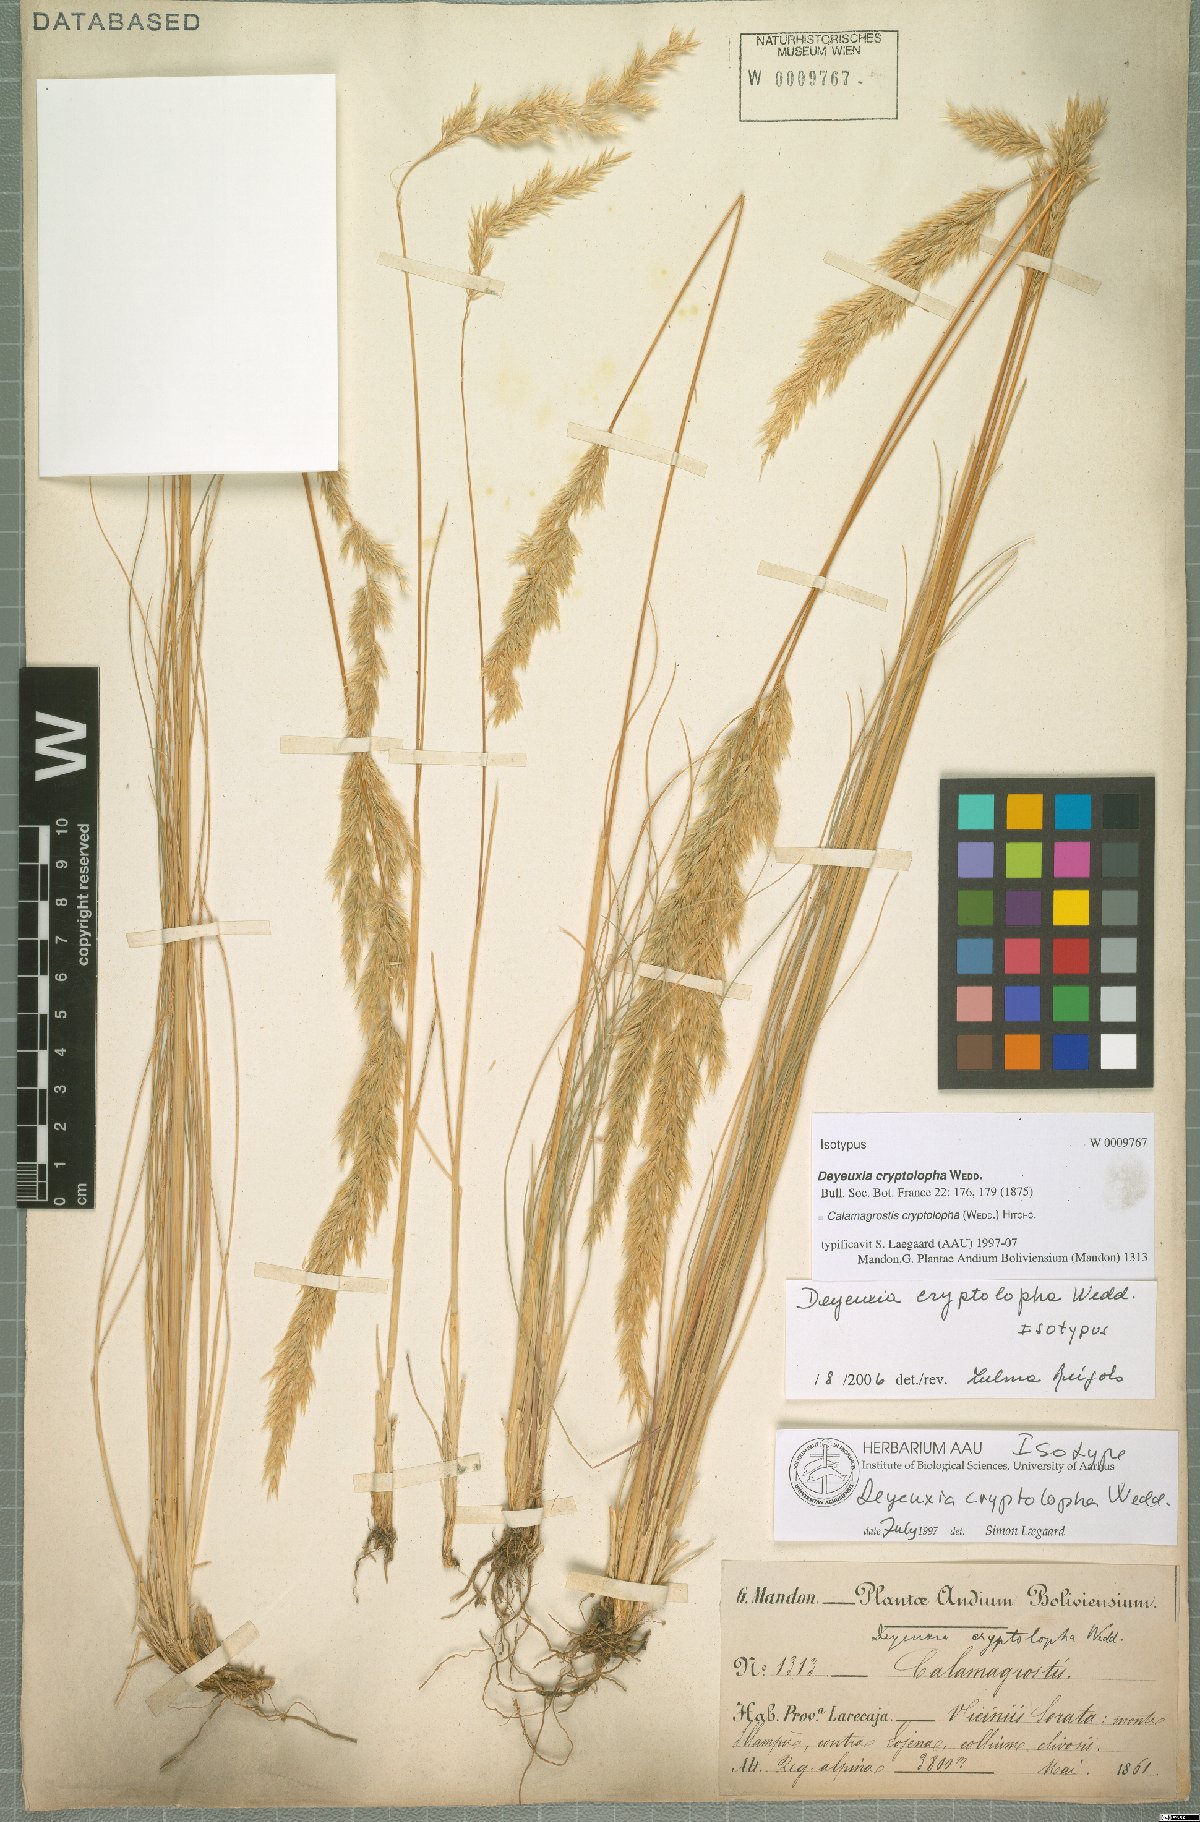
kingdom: Plantae
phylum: Tracheophyta
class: Liliopsida
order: Poales
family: Poaceae
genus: Cinnagrostis
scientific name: Cinnagrostis cryptolopha
